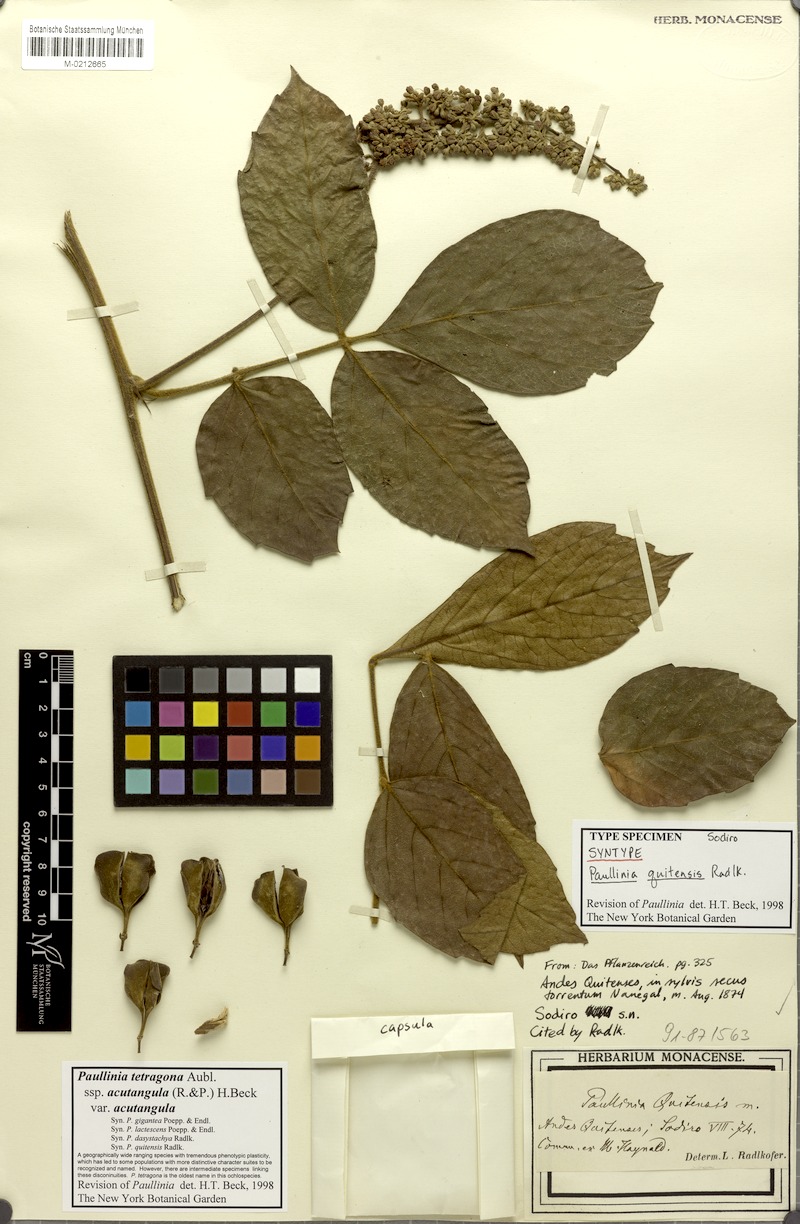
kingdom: Plantae
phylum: Tracheophyta
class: Magnoliopsida
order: Sapindales
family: Sapindaceae
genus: Paullinia
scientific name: Paullinia tetragona
